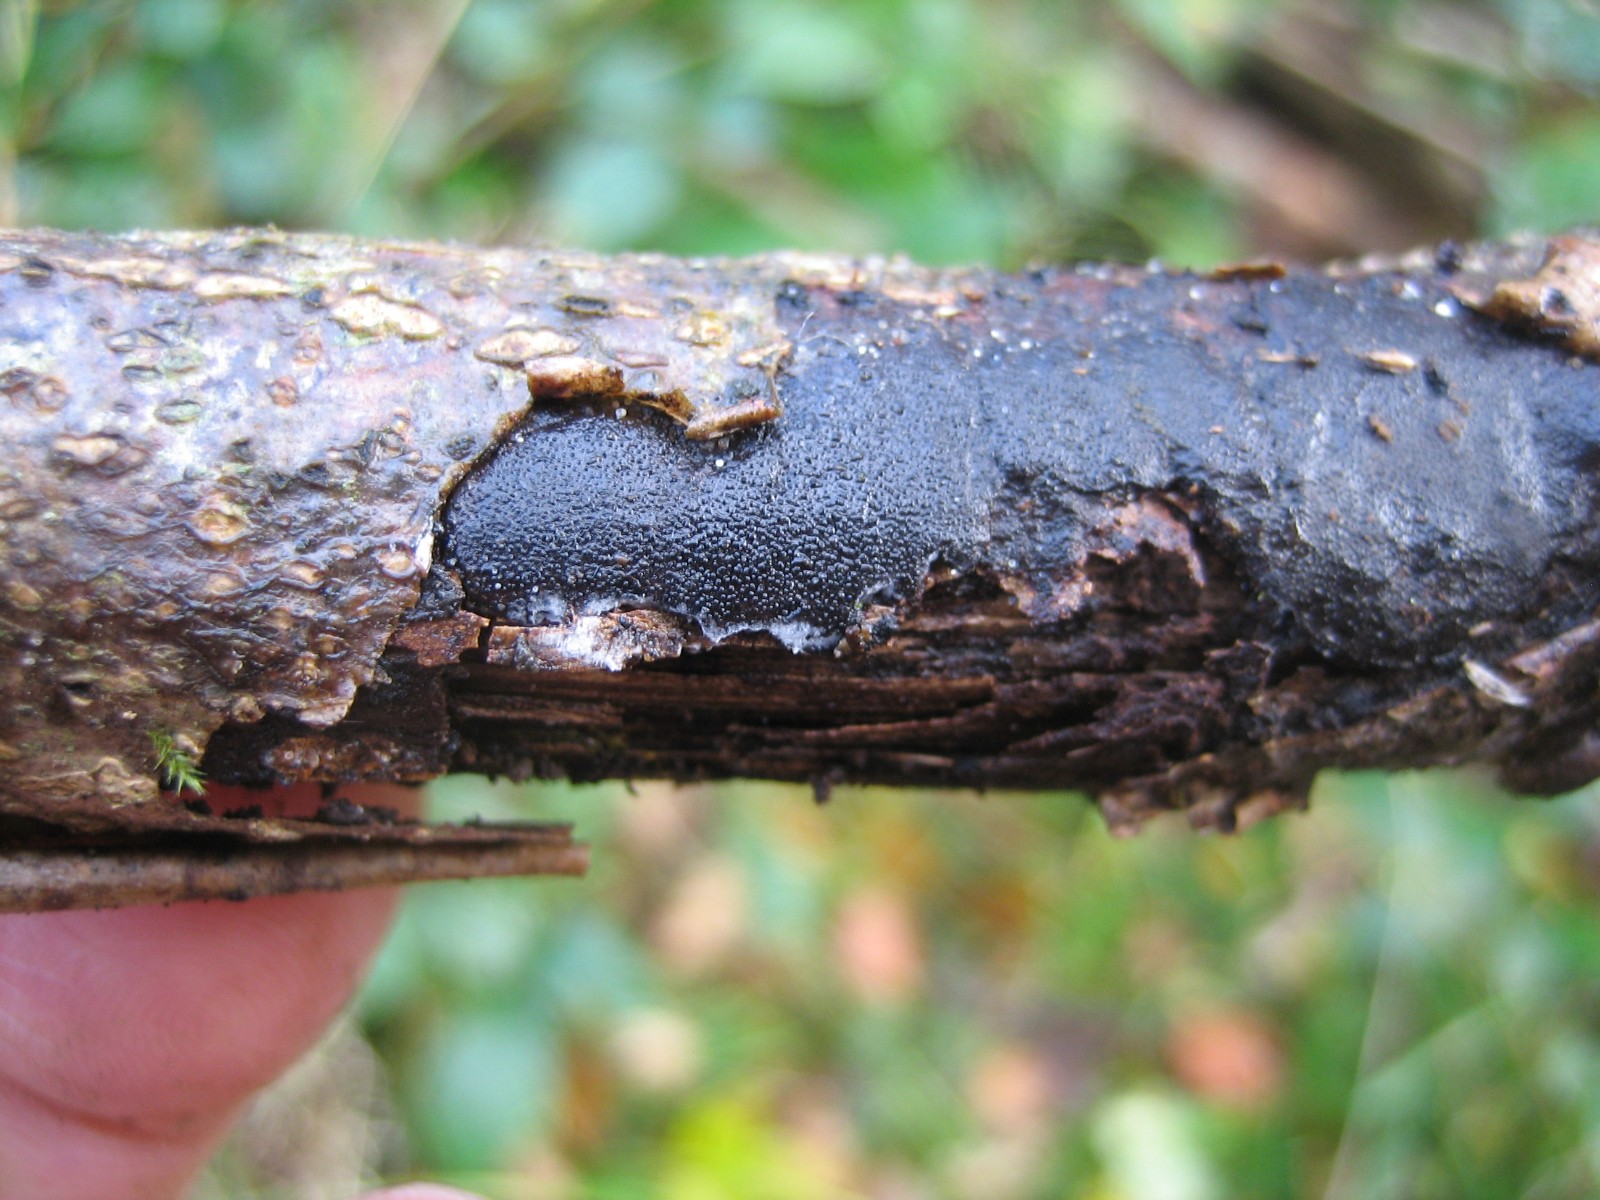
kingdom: Fungi
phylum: Ascomycota
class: Sordariomycetes
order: Xylariales
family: Diatrypaceae
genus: Diatrype
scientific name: Diatrype
